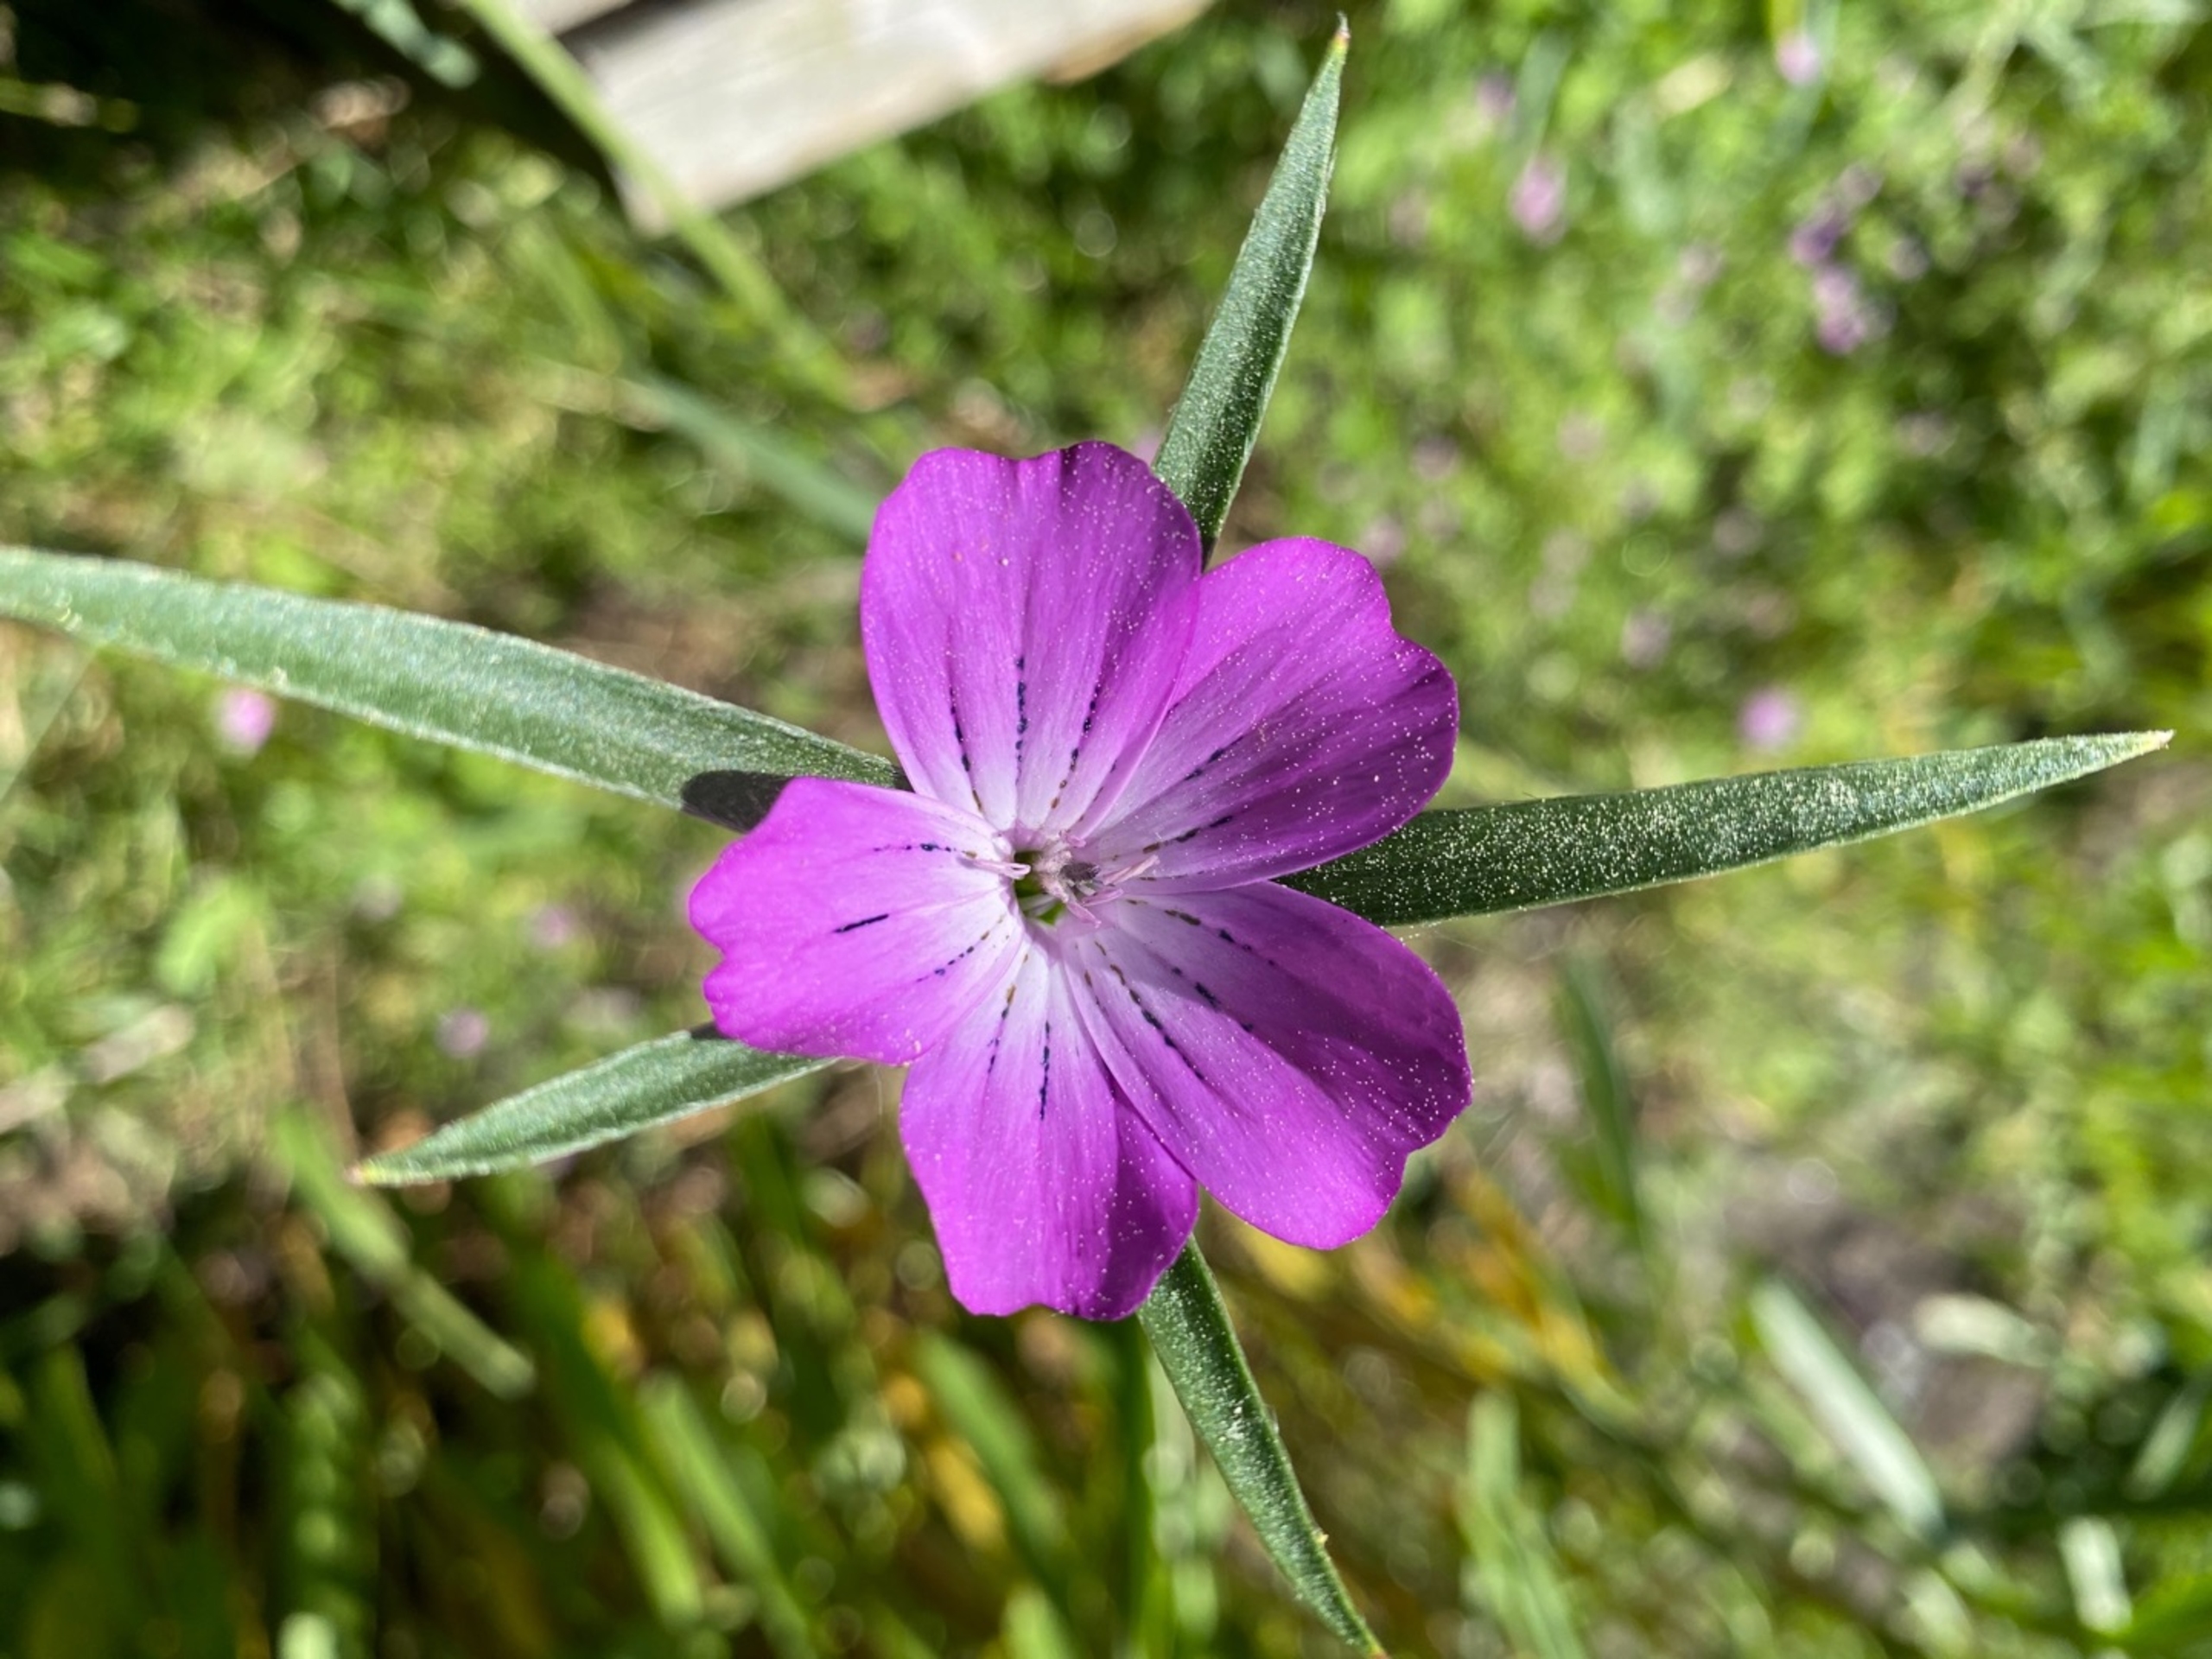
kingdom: Plantae
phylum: Tracheophyta
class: Magnoliopsida
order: Caryophyllales
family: Caryophyllaceae
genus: Agrostemma
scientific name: Agrostemma githago
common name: Klinte
